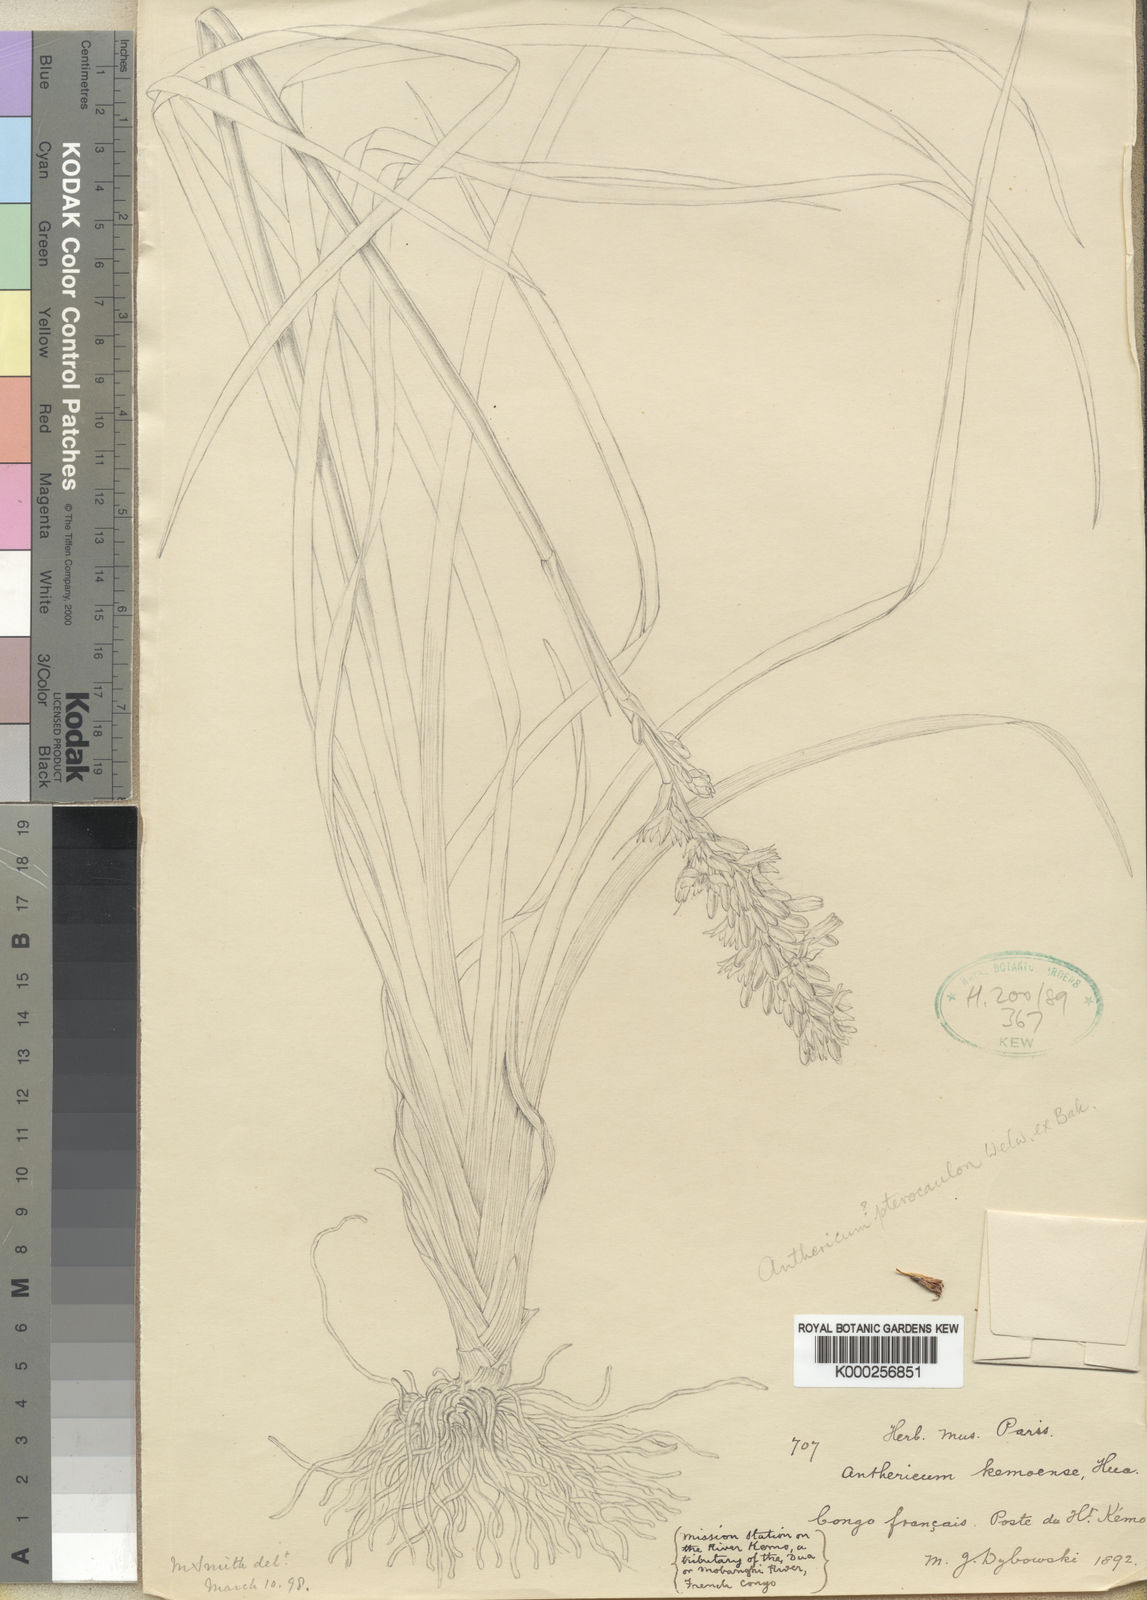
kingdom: Plantae
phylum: Tracheophyta
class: Liliopsida
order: Asparagales
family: Asparagaceae
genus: Chlorophytum
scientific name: Chlorophytum cameronii
